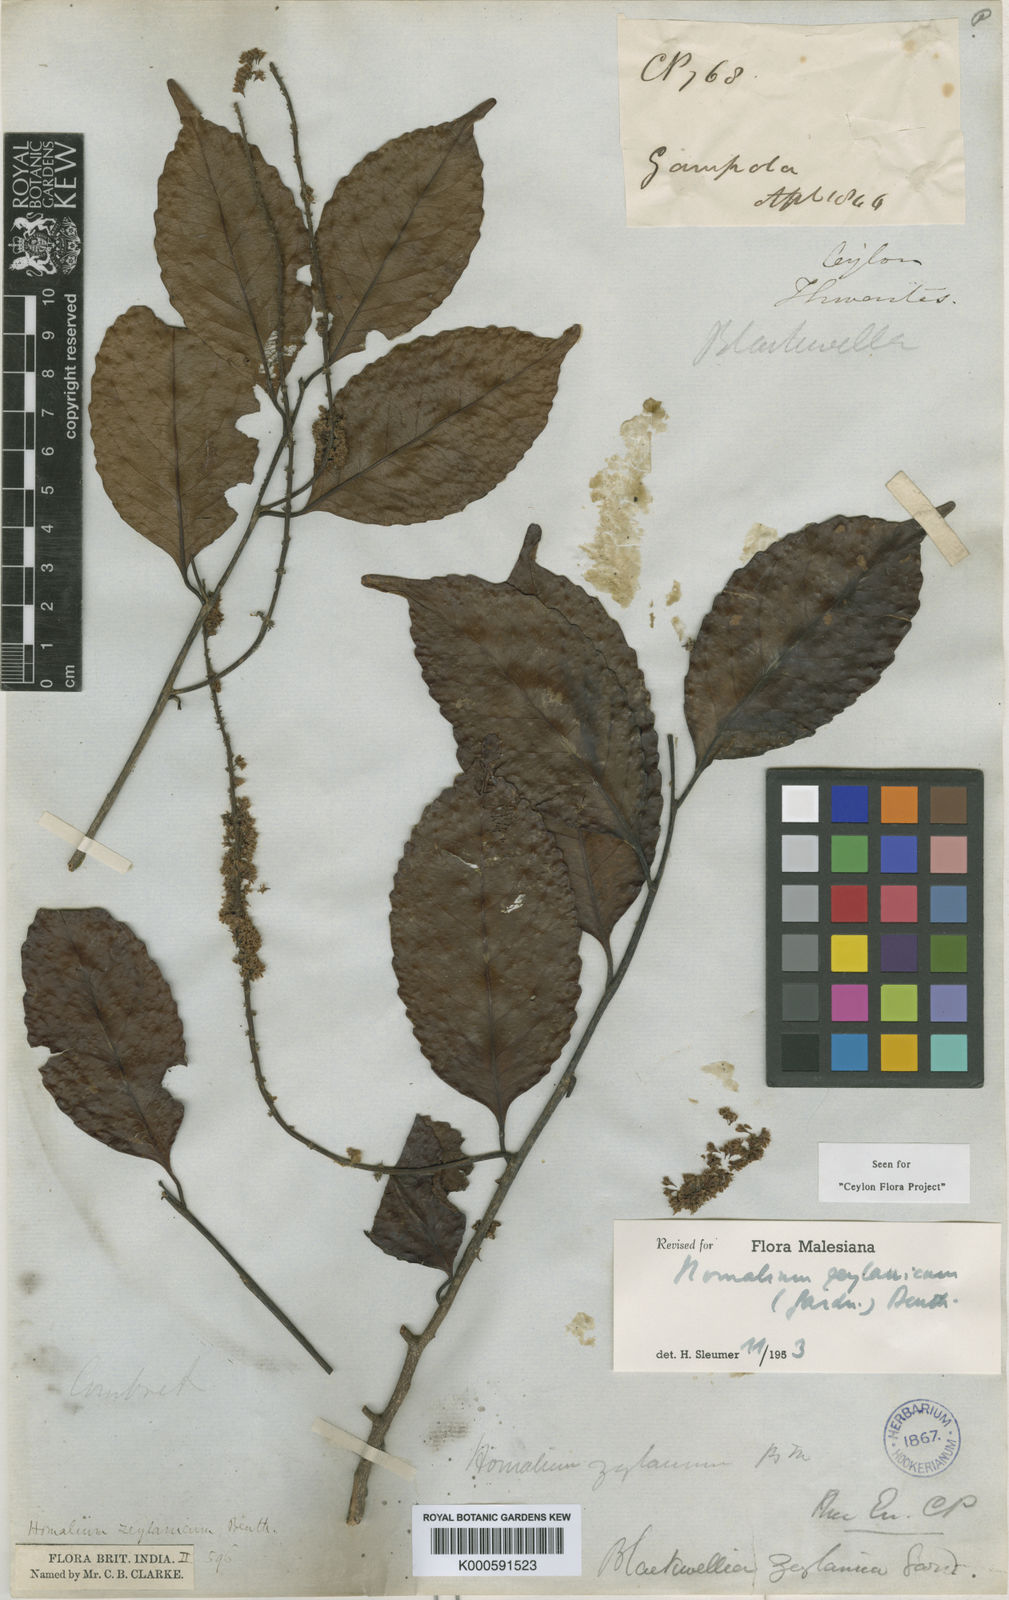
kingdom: Plantae
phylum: Tracheophyta
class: Magnoliopsida
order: Malpighiales
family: Salicaceae
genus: Homalium
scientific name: Homalium ceylanicum
